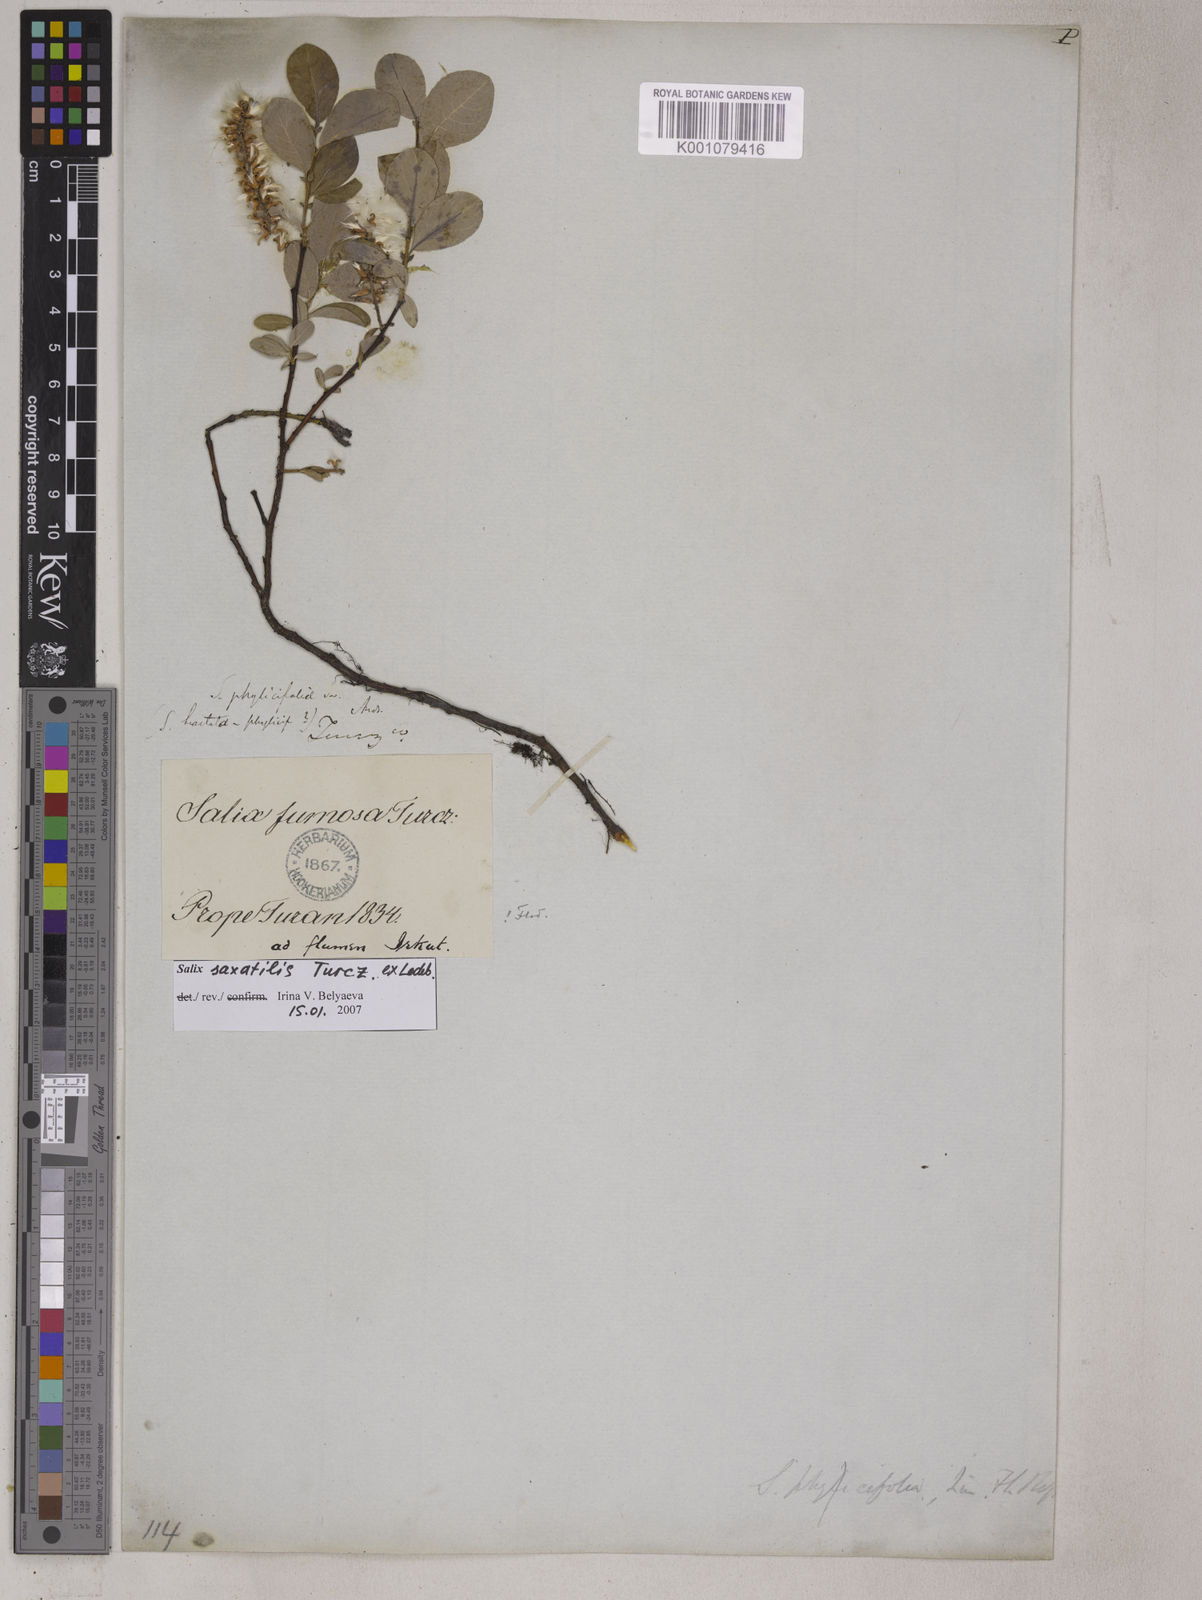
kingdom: Plantae
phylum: Tracheophyta
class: Magnoliopsida
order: Malpighiales
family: Salicaceae
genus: Salix
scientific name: Salix saxatilis
